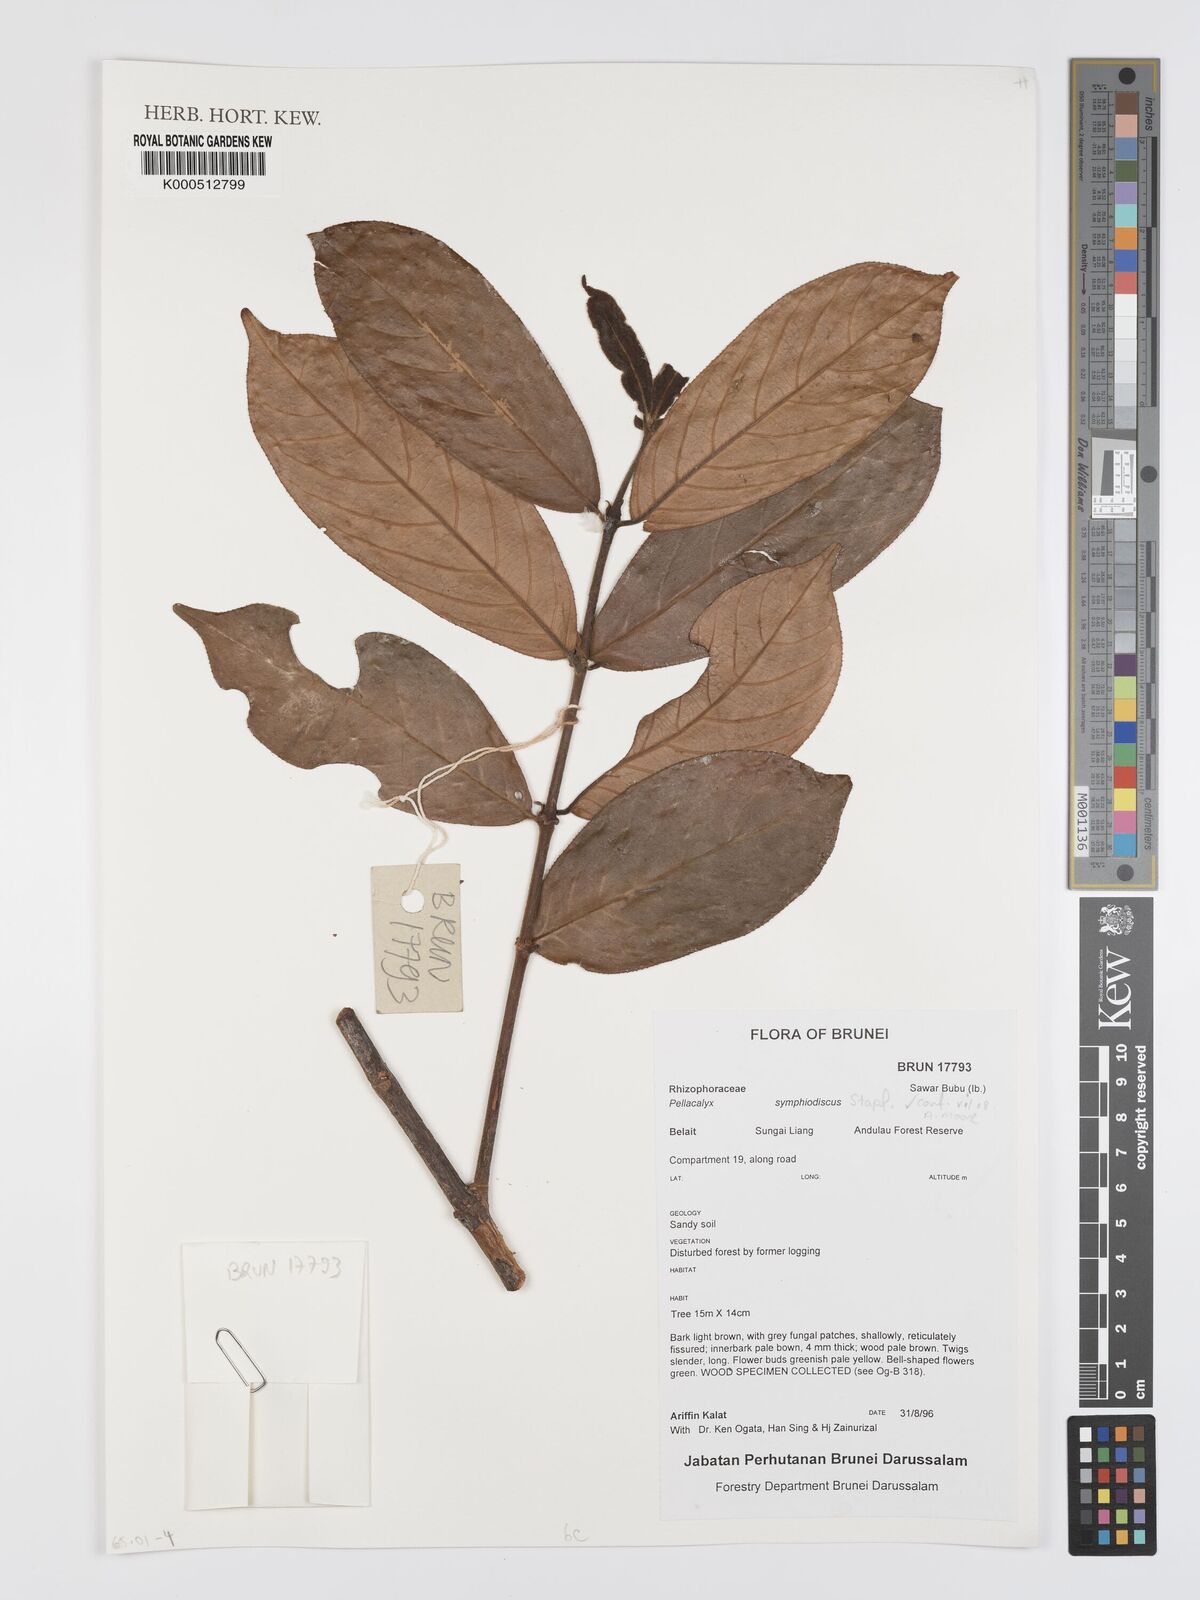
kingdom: Plantae
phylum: Tracheophyta
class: Magnoliopsida
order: Malpighiales
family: Rhizophoraceae
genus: Pellacalyx
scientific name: Pellacalyx
